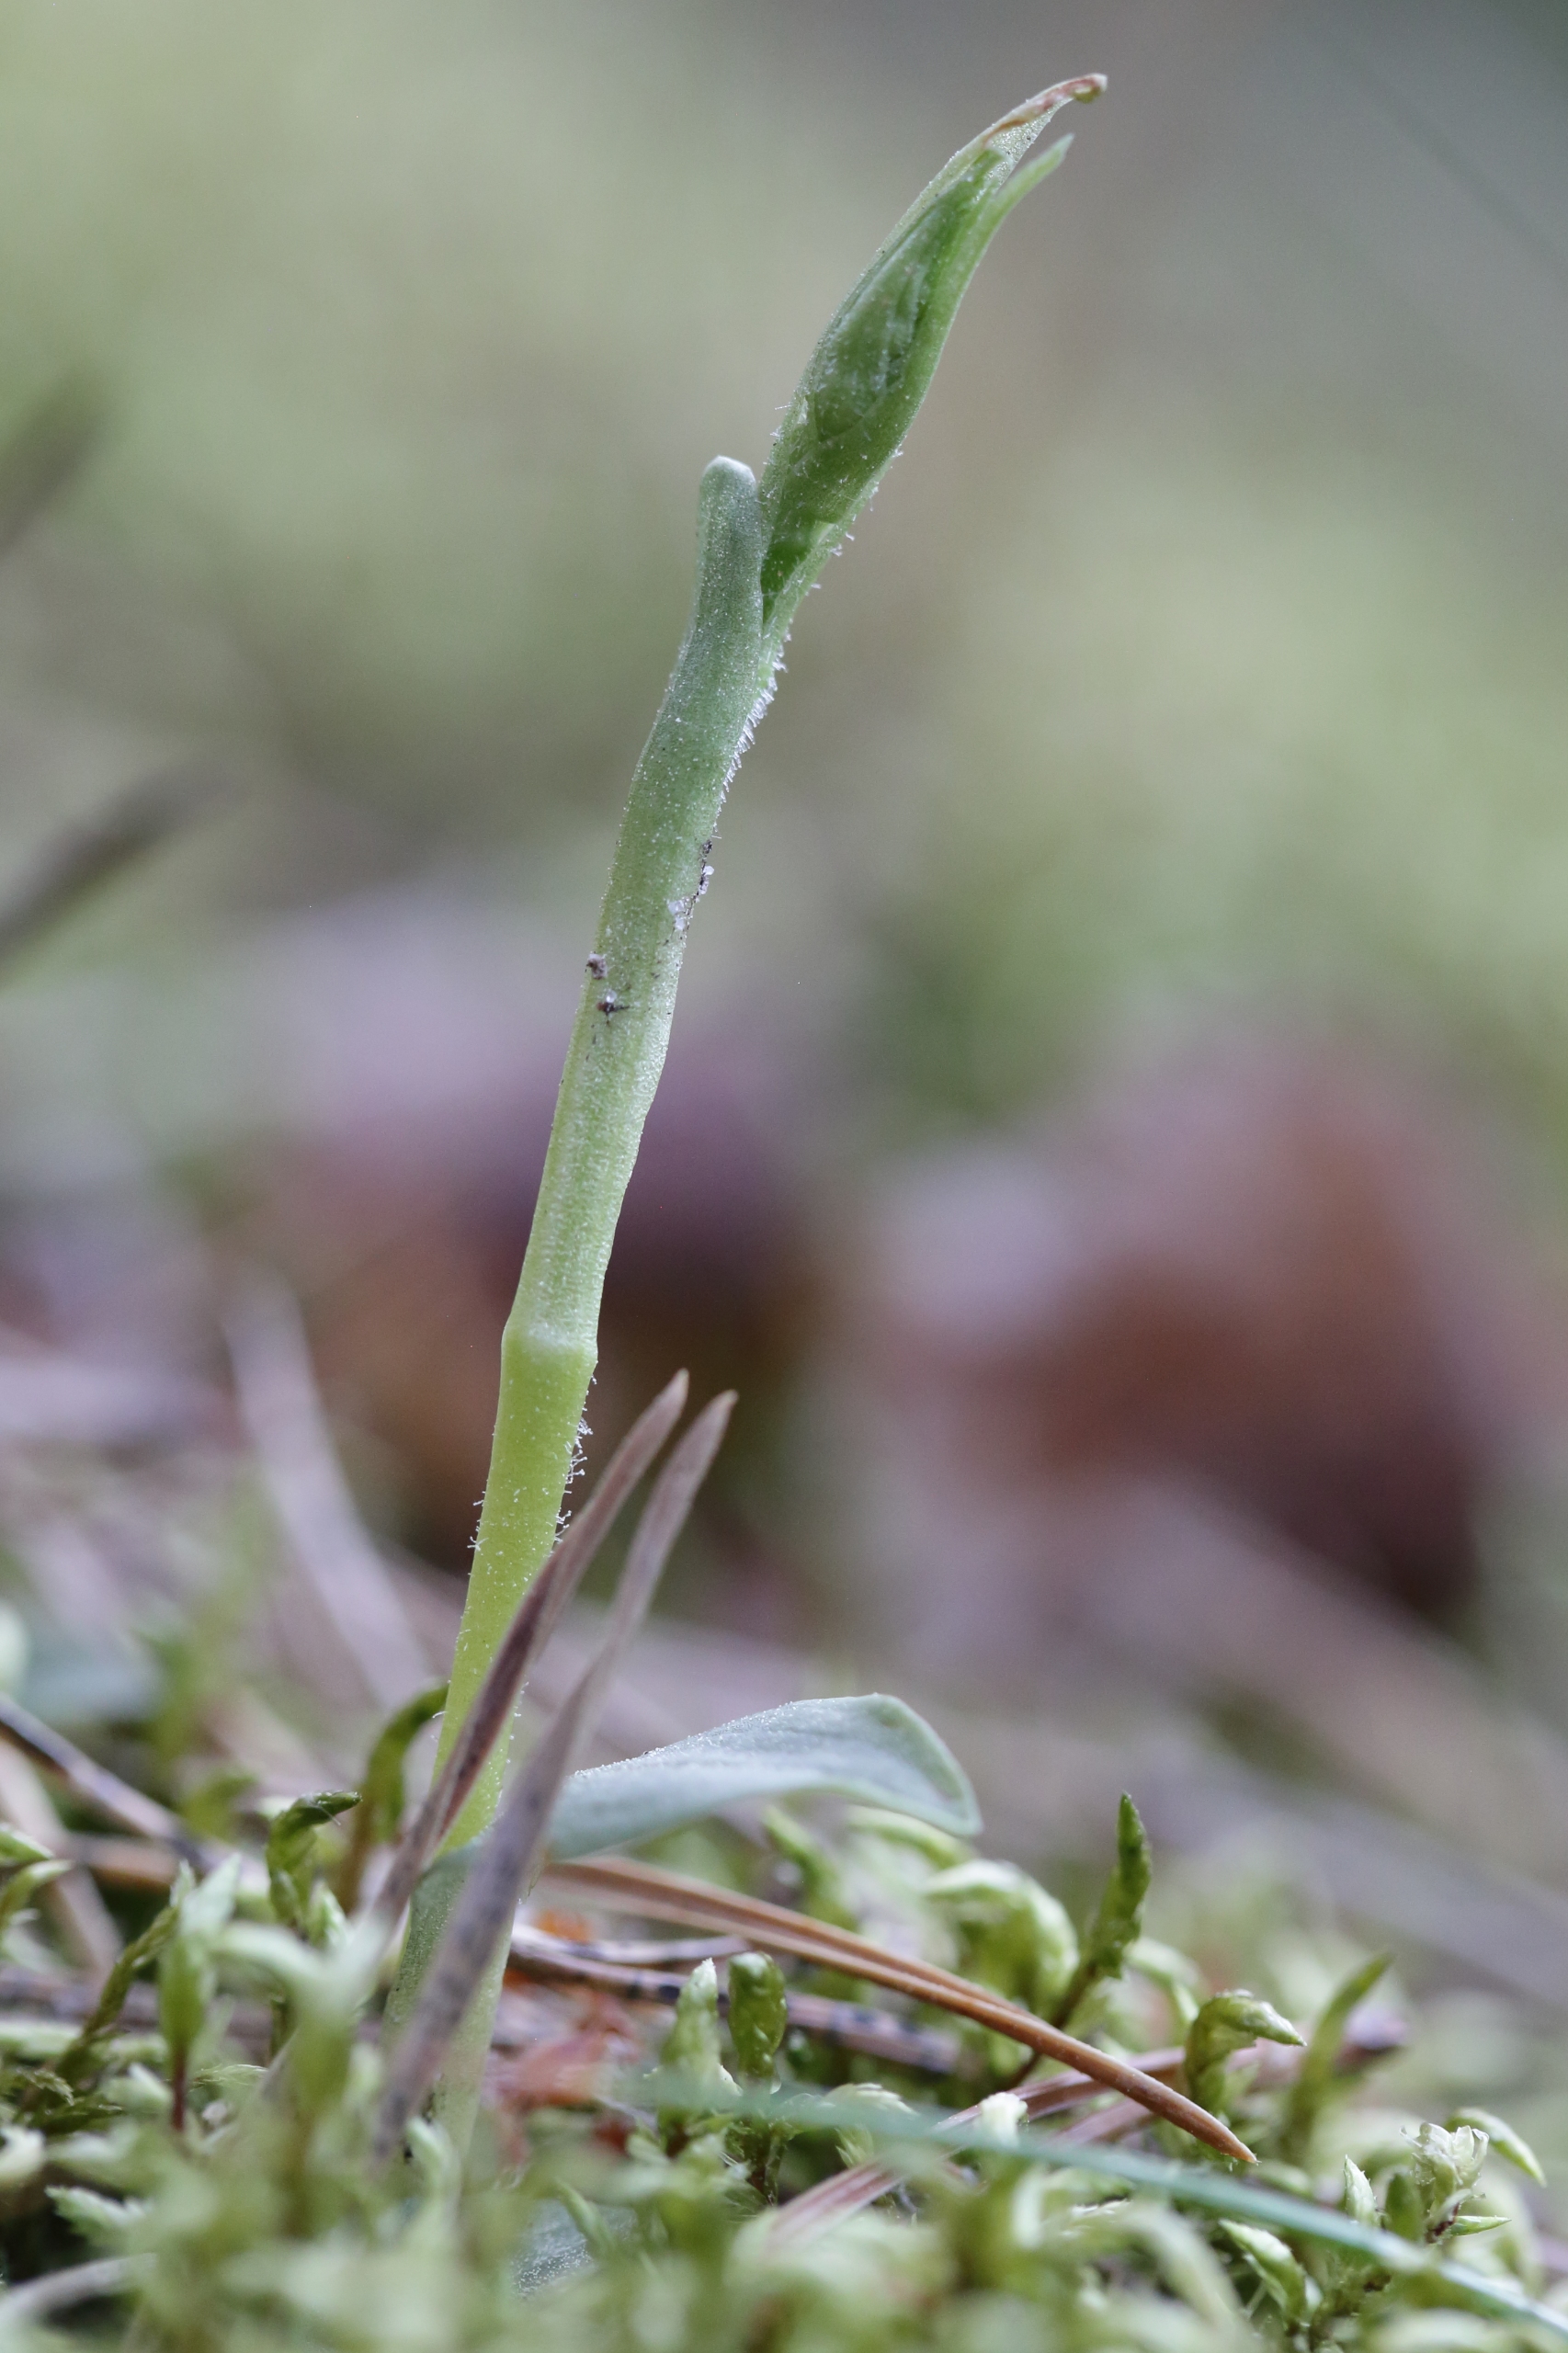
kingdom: Plantae
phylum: Tracheophyta
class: Liliopsida
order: Asparagales
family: Orchidaceae
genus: Goodyera
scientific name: Goodyera repens
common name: Knærod
